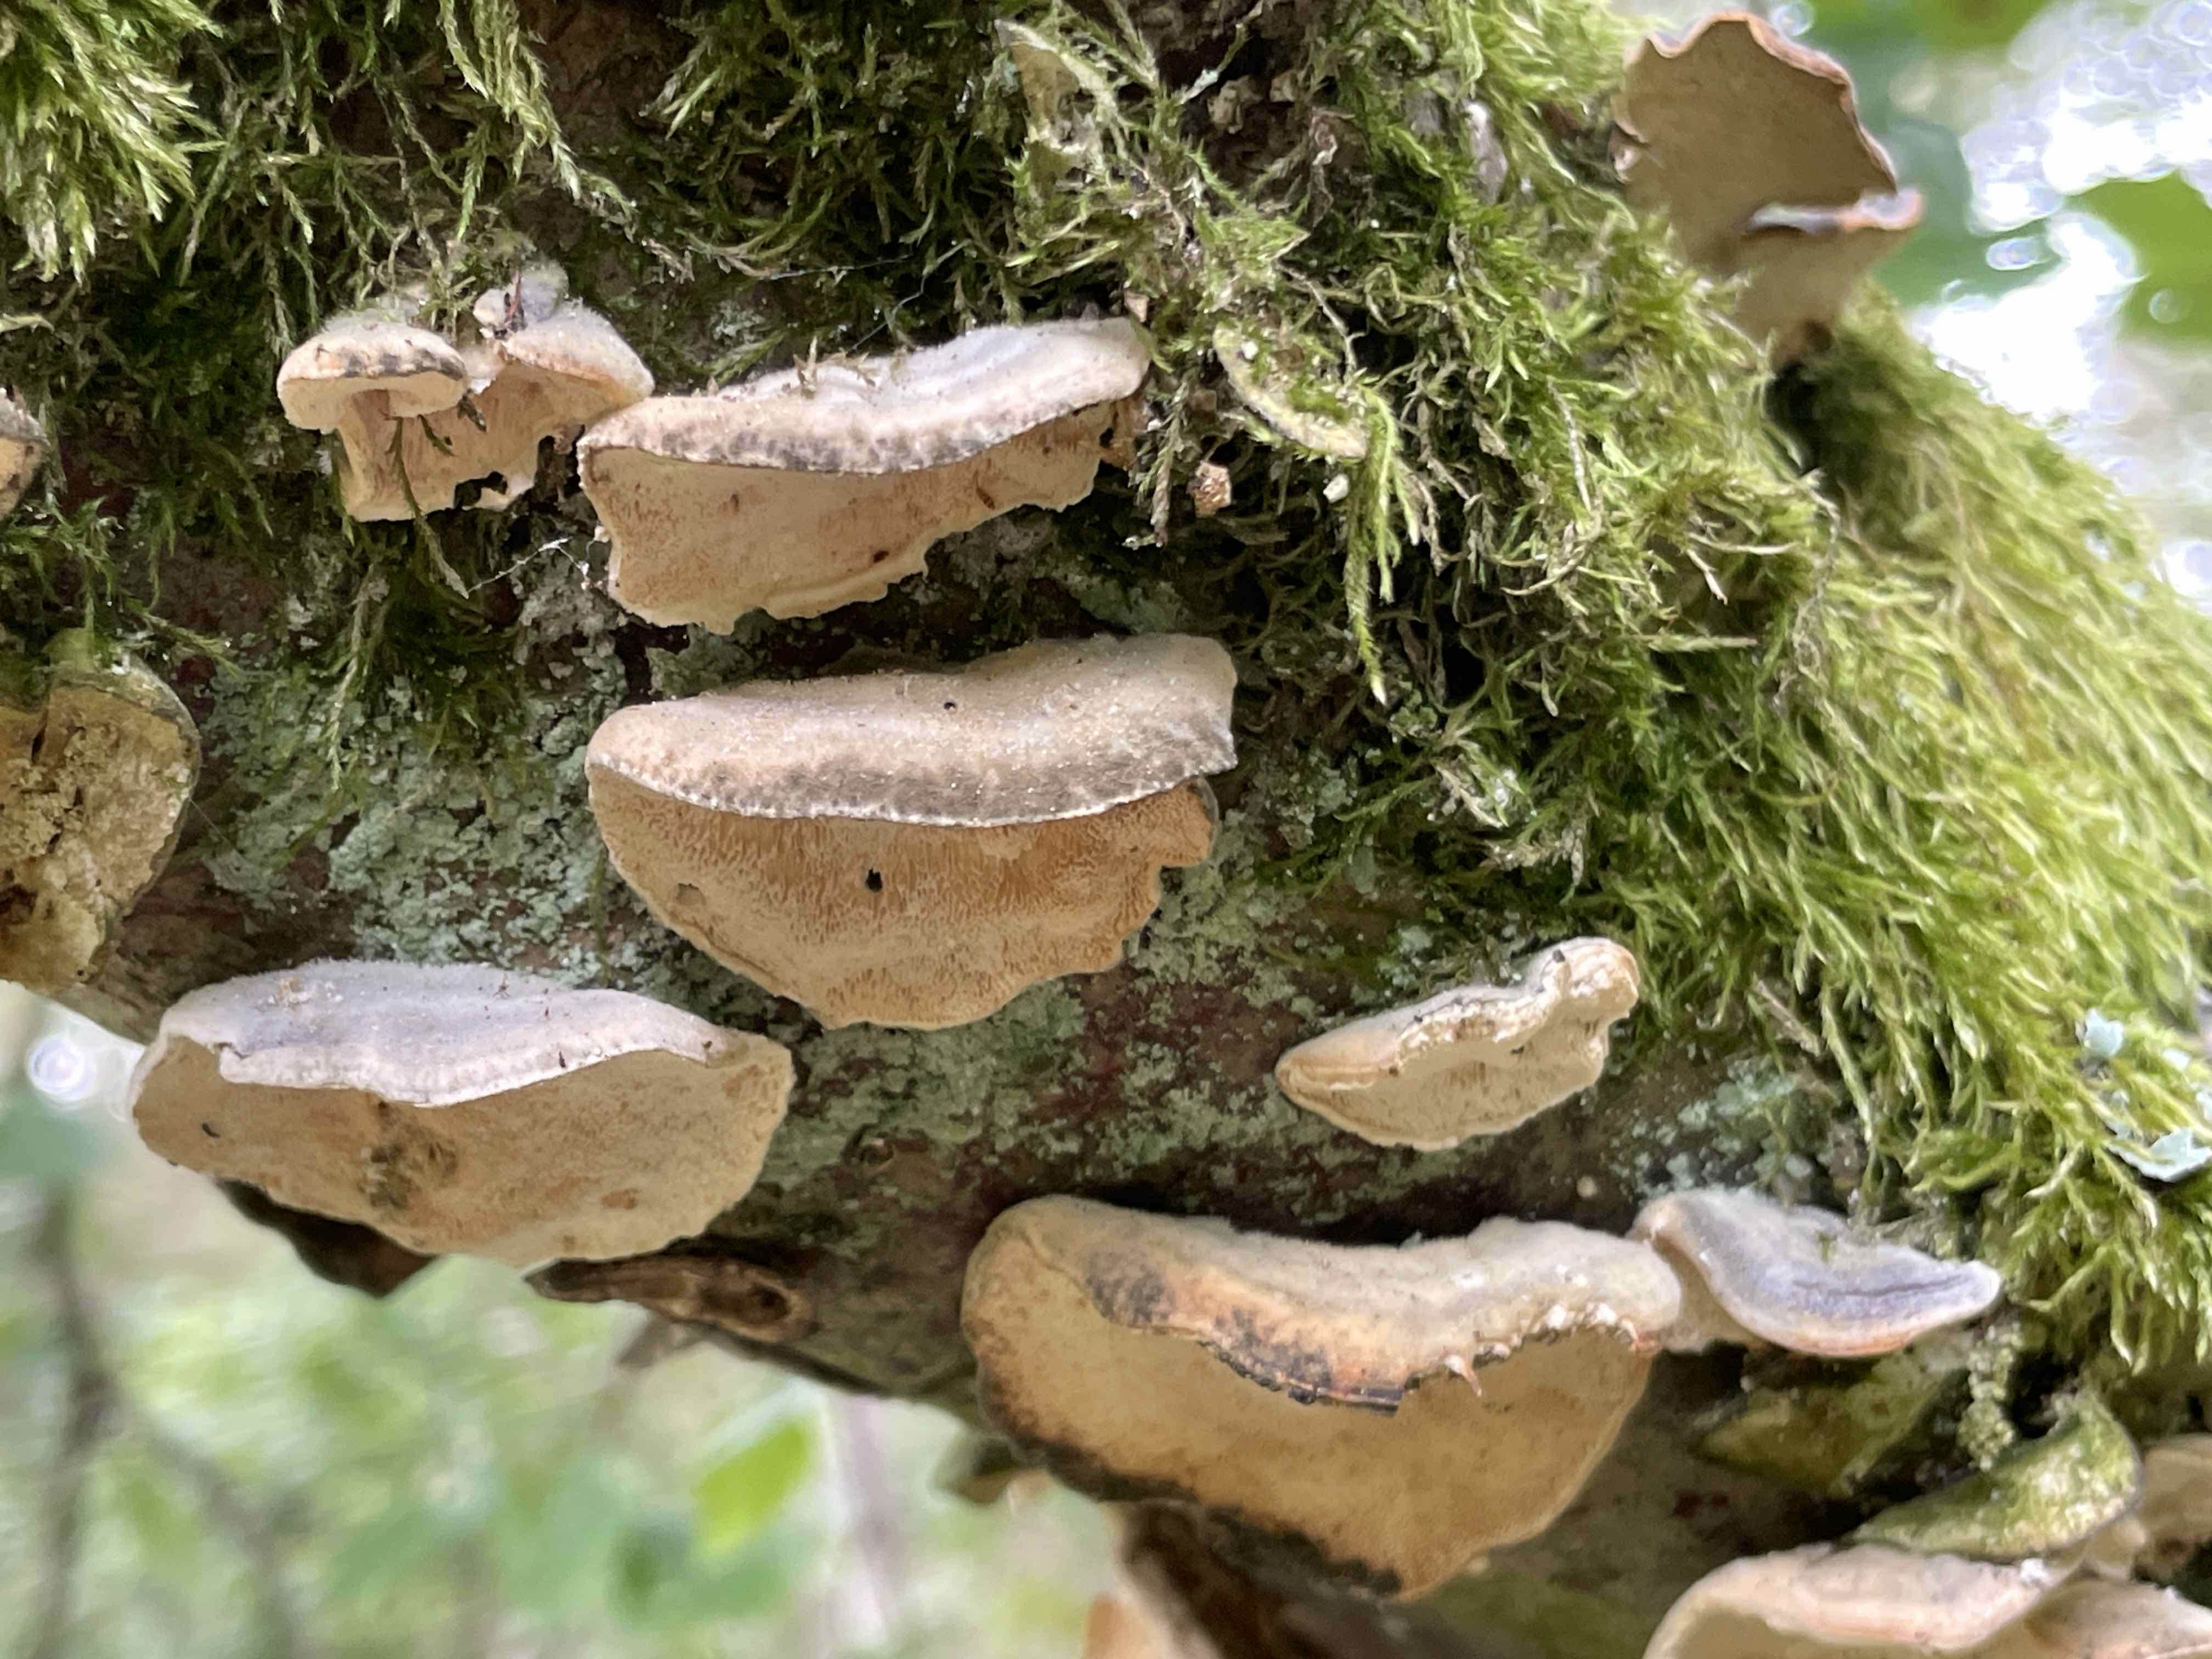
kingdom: Fungi
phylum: Basidiomycota
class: Agaricomycetes
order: Polyporales
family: Polyporaceae
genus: Trametes
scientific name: Trametes ochracea
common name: bæltet læderporesvamp
